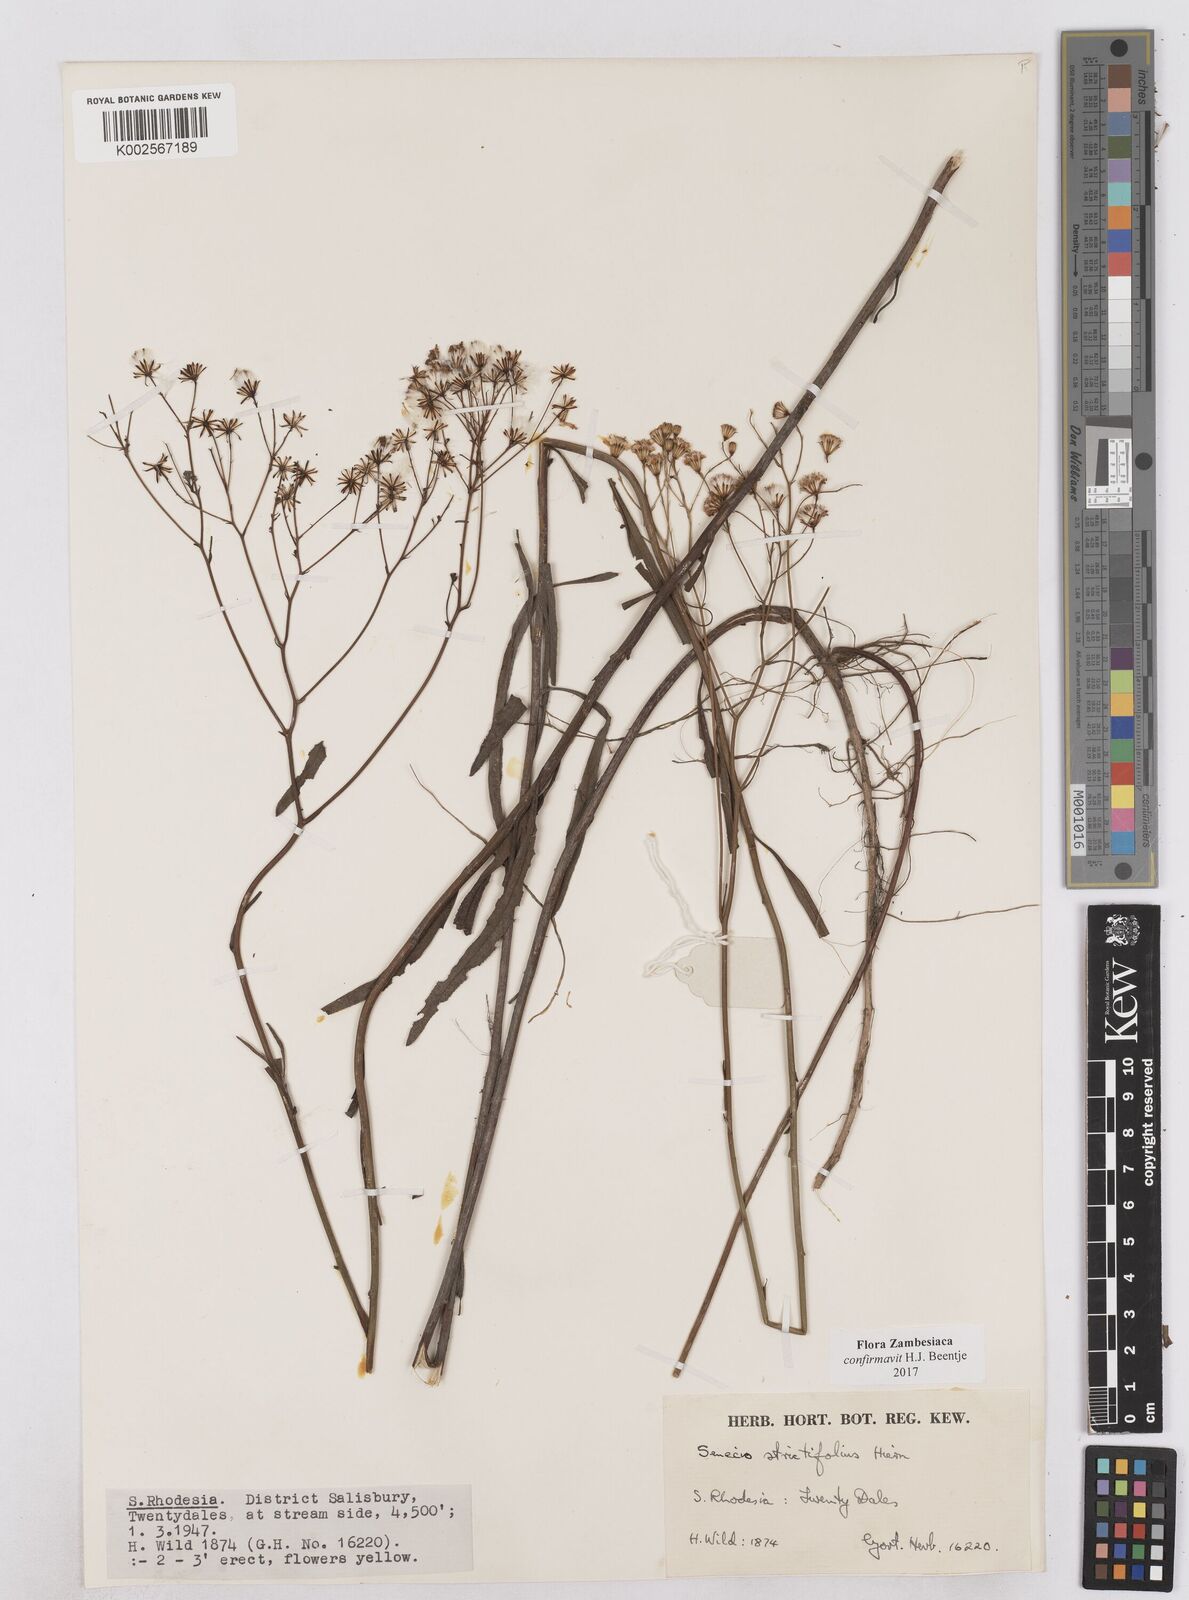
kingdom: Plantae
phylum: Tracheophyta
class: Magnoliopsida
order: Asterales
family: Asteraceae
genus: Senecio
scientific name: Senecio strictifolius
